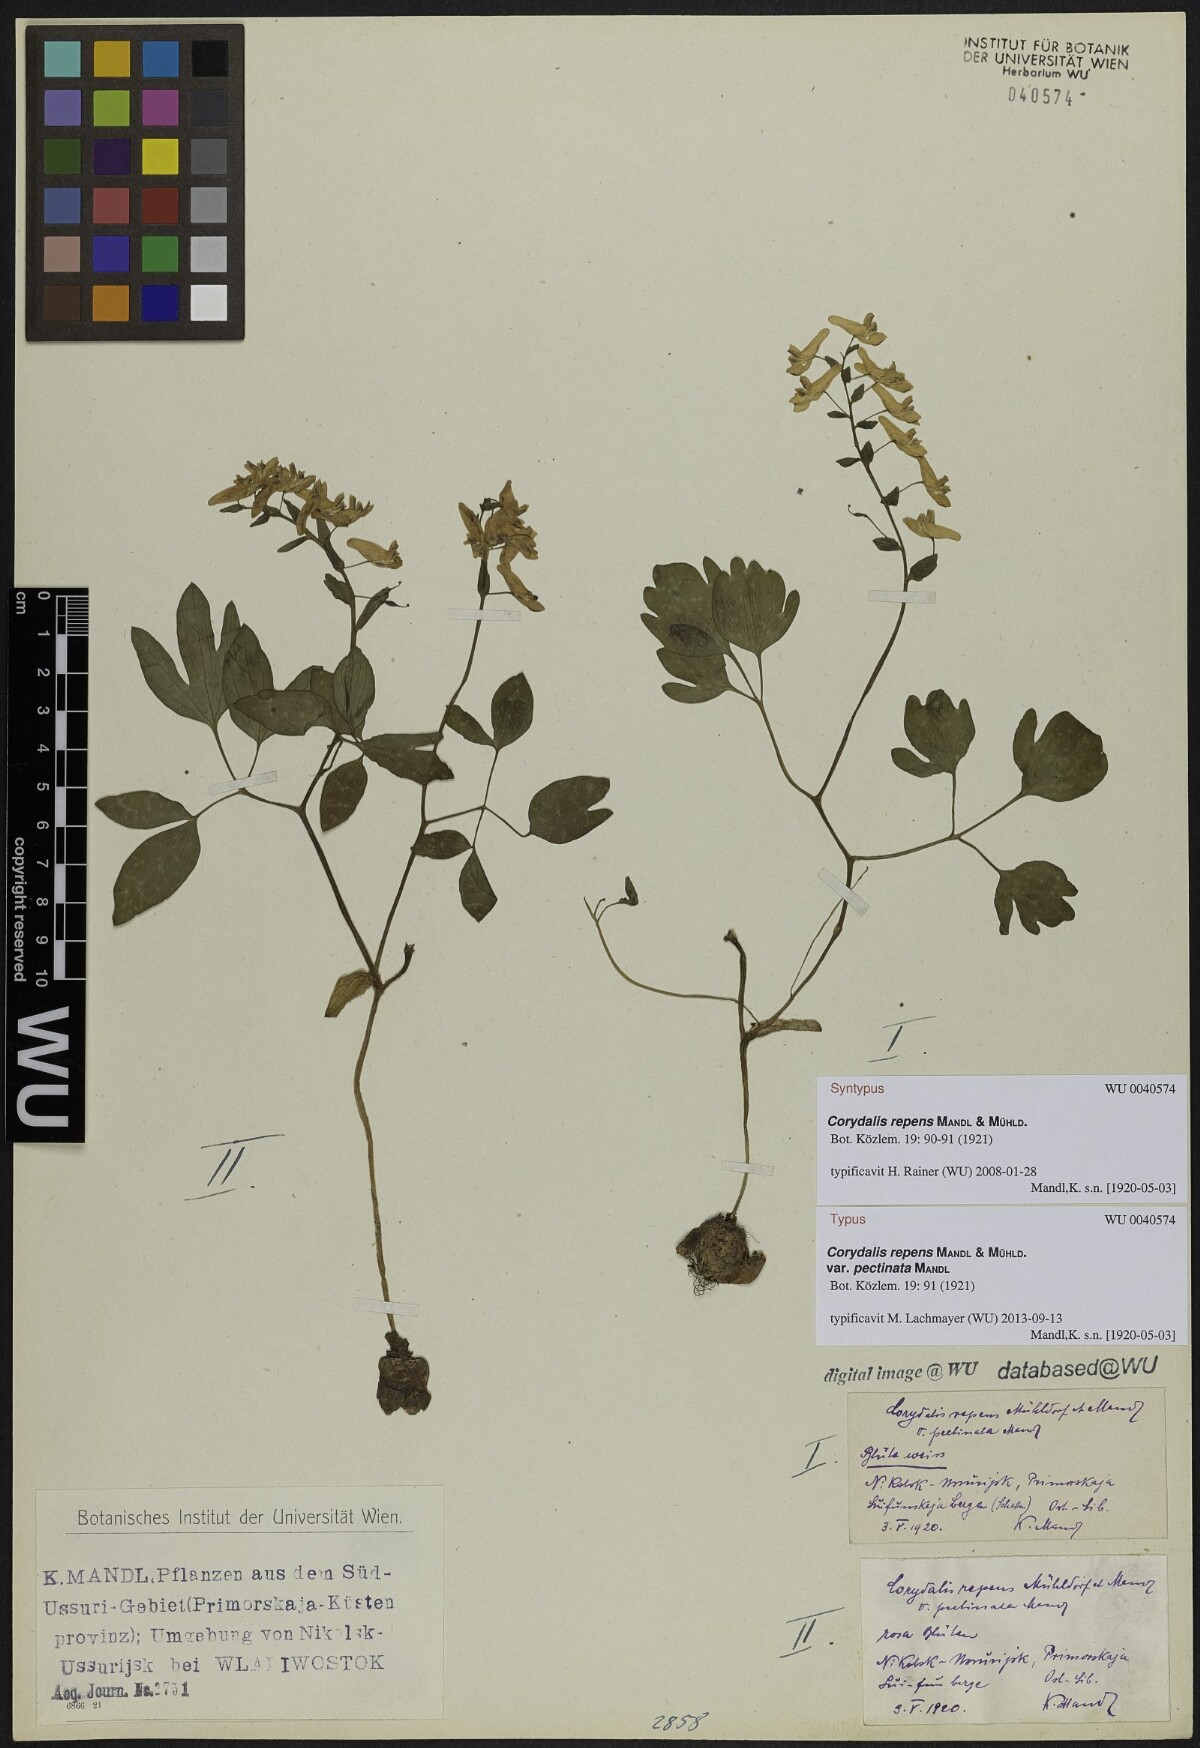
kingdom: Plantae
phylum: Tracheophyta
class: Magnoliopsida
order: Ranunculales
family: Papaveraceae
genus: Corydalis
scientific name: Corydalis repens
